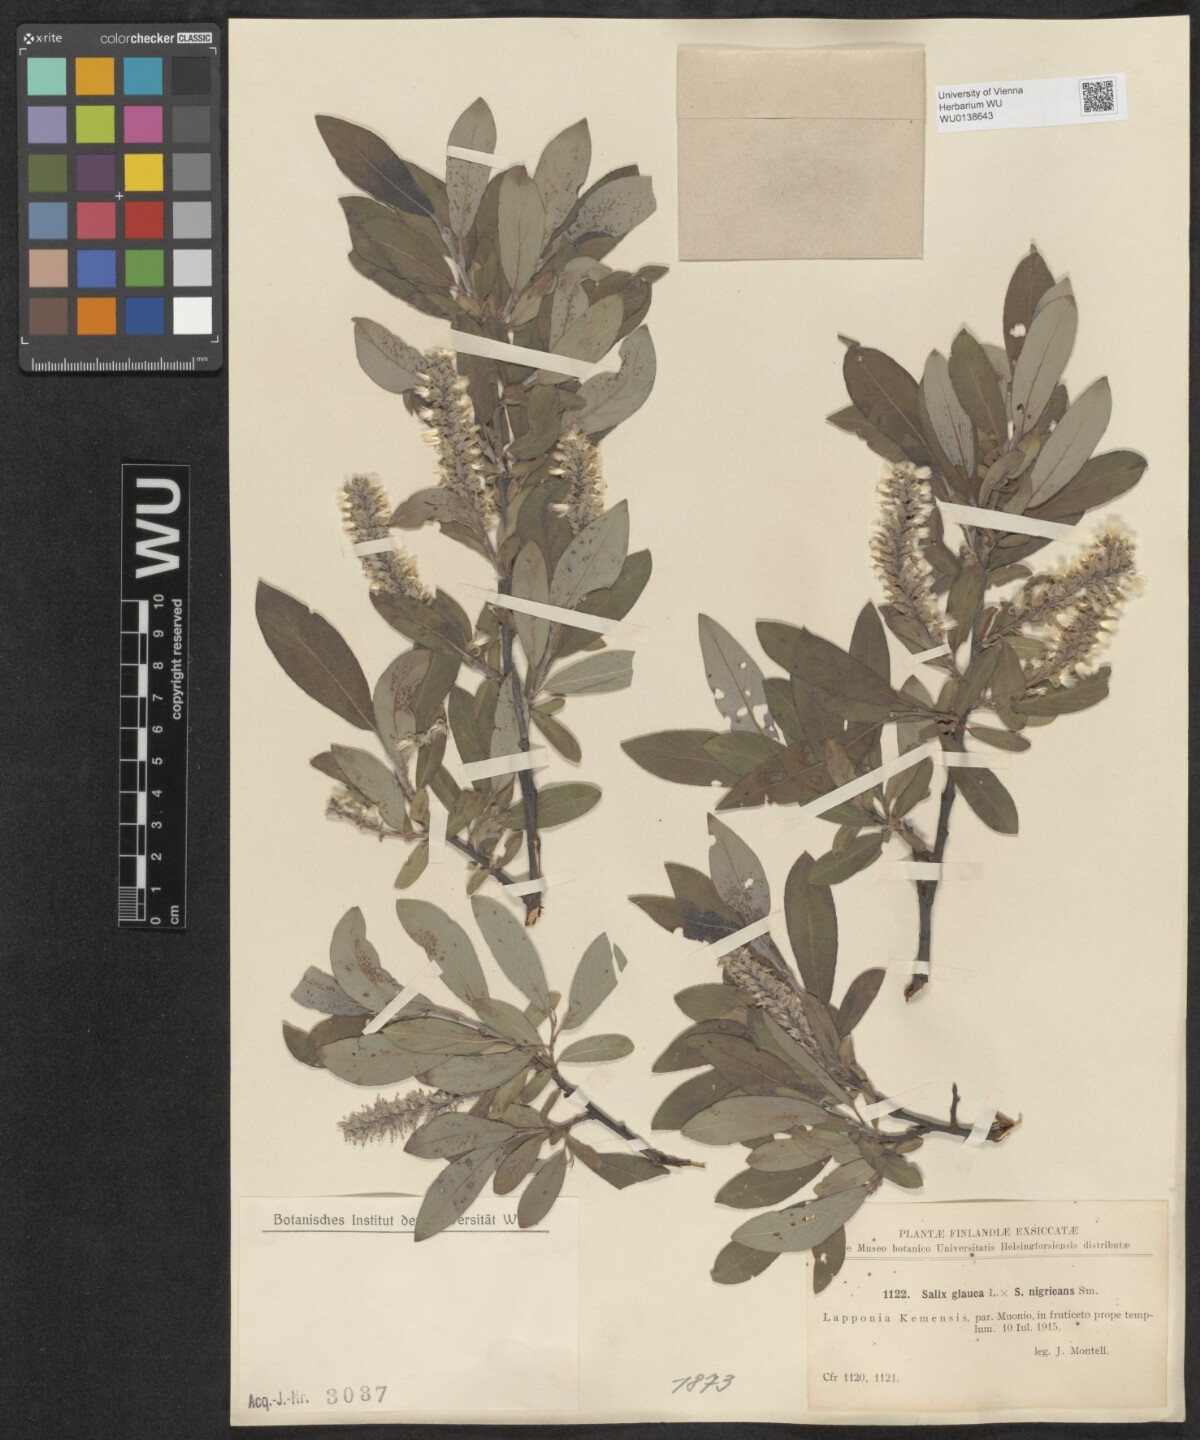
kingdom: Plantae
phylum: Tracheophyta
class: Magnoliopsida
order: Malpighiales
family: Salicaceae
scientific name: Salicaceae
